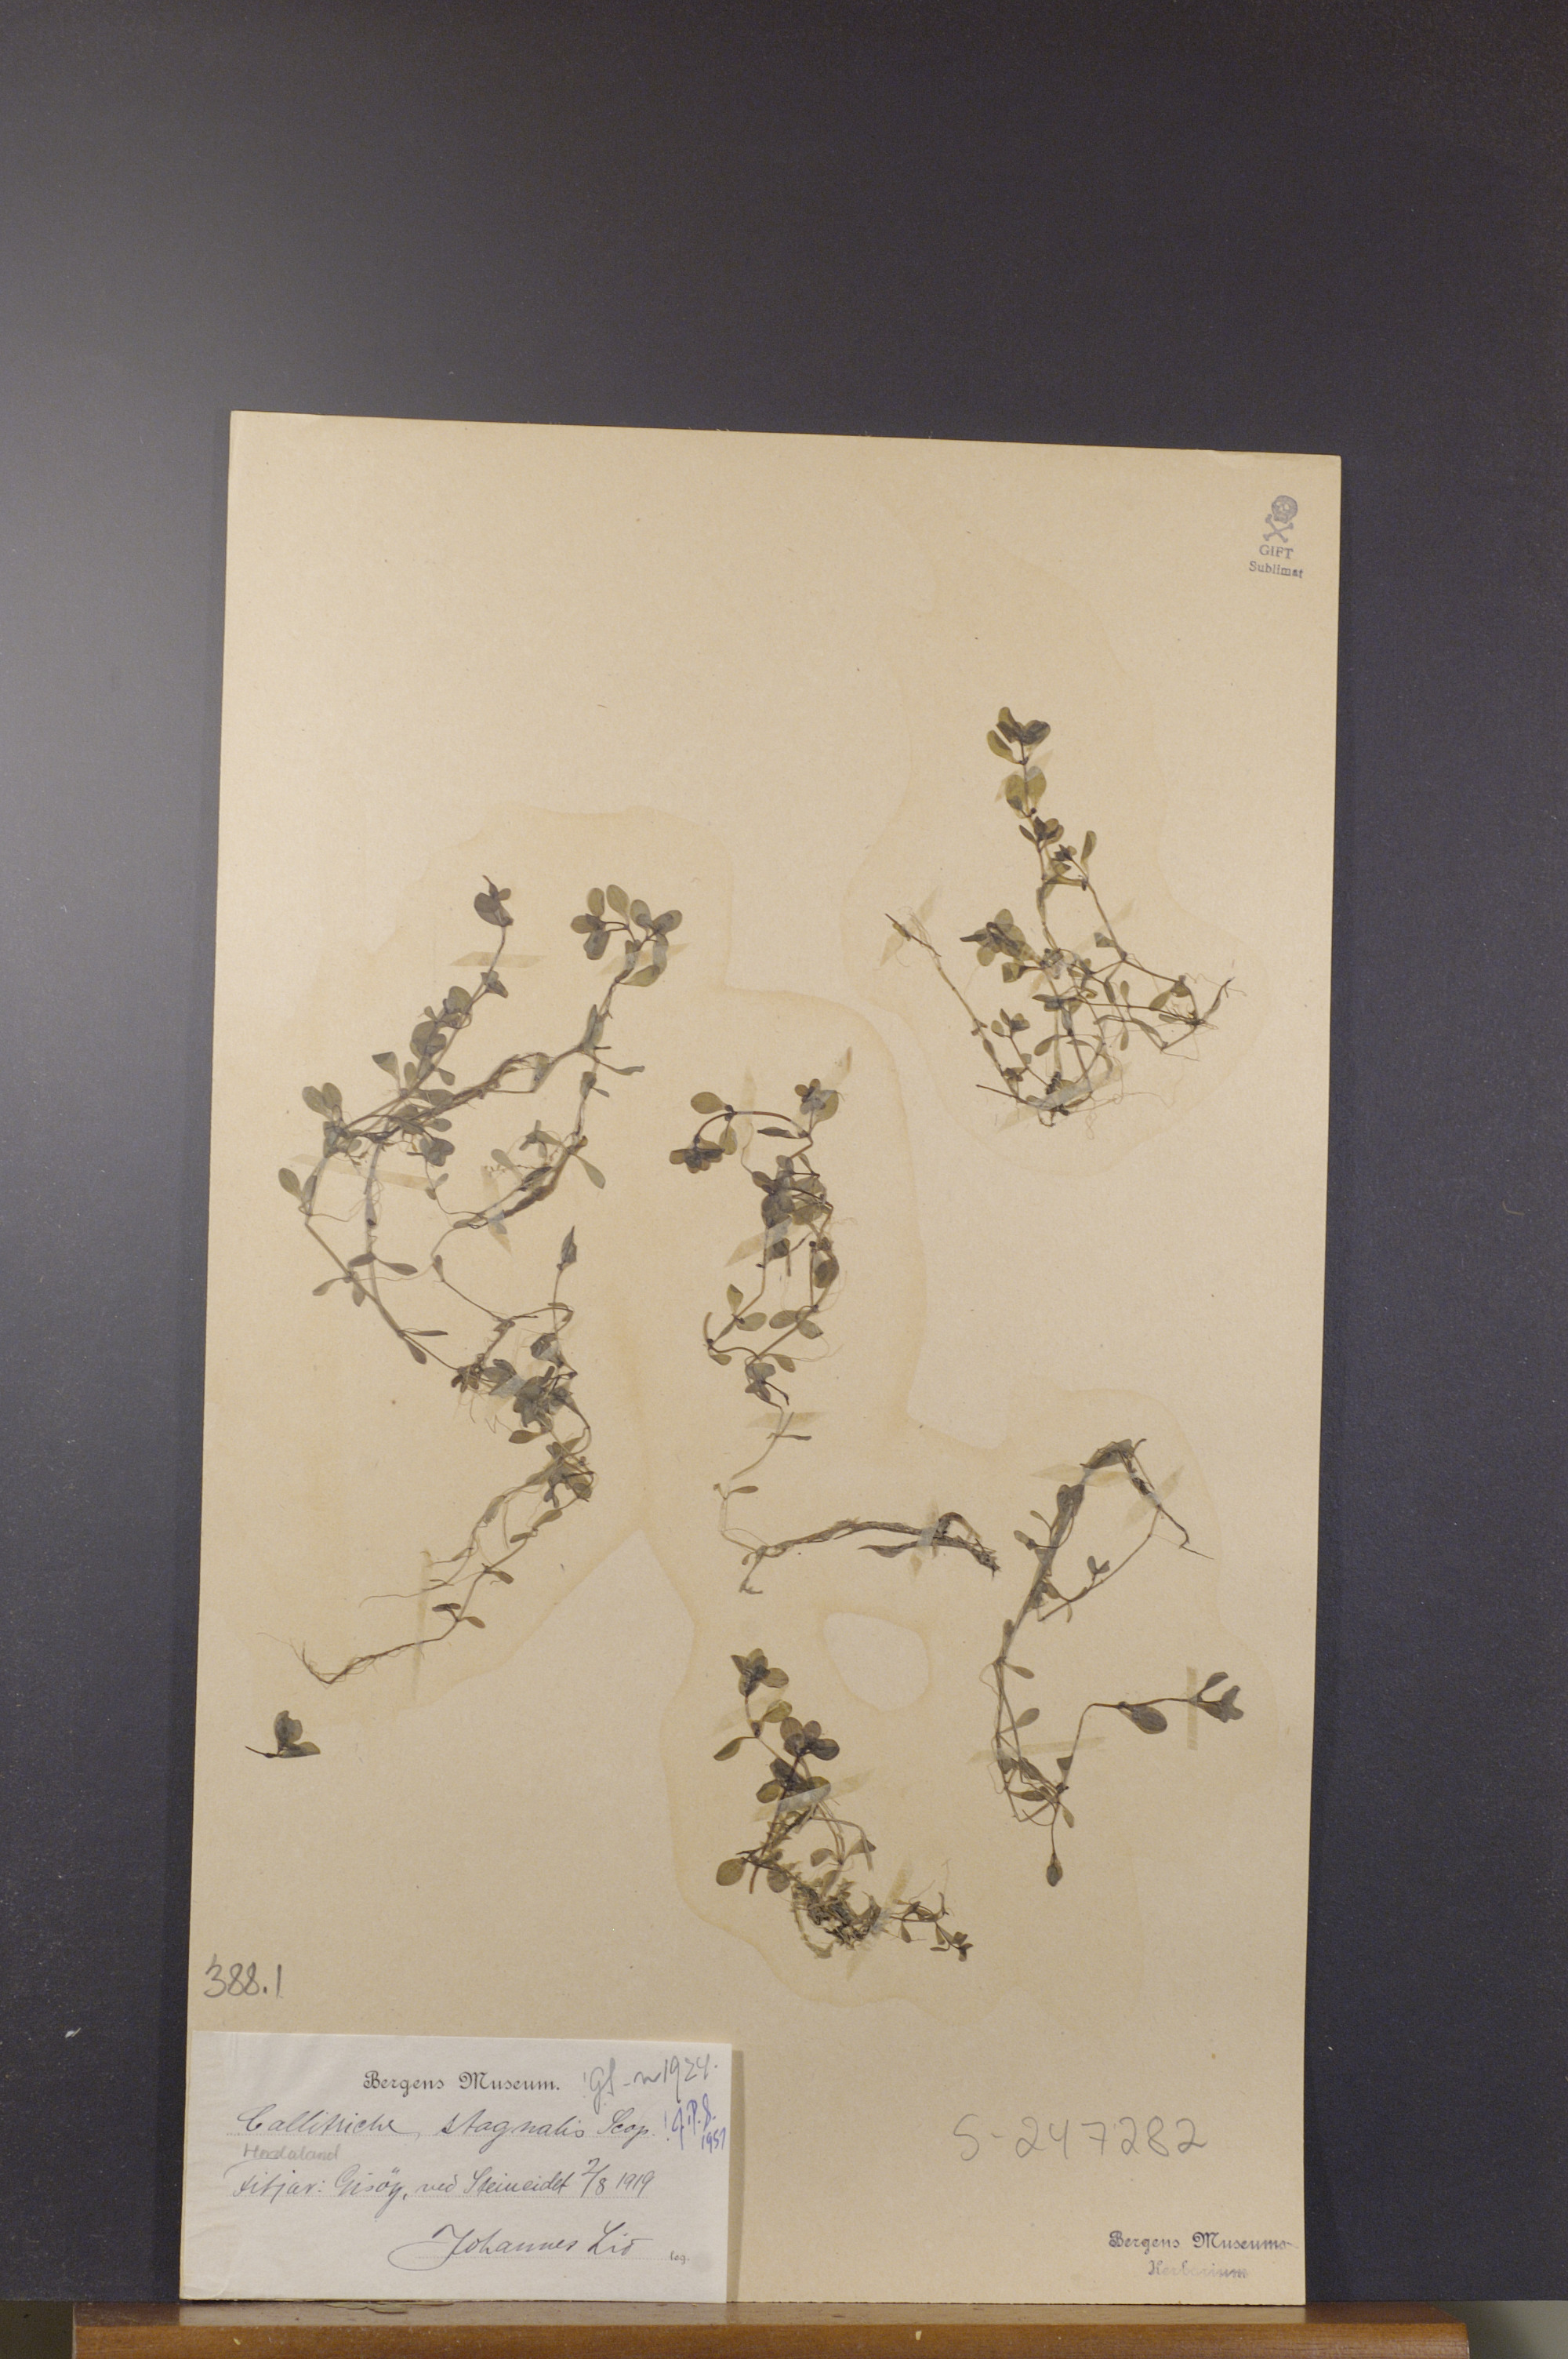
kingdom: Plantae
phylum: Tracheophyta
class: Magnoliopsida
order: Lamiales
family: Plantaginaceae
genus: Callitriche
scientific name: Callitriche stagnalis
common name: Common water-starwort
